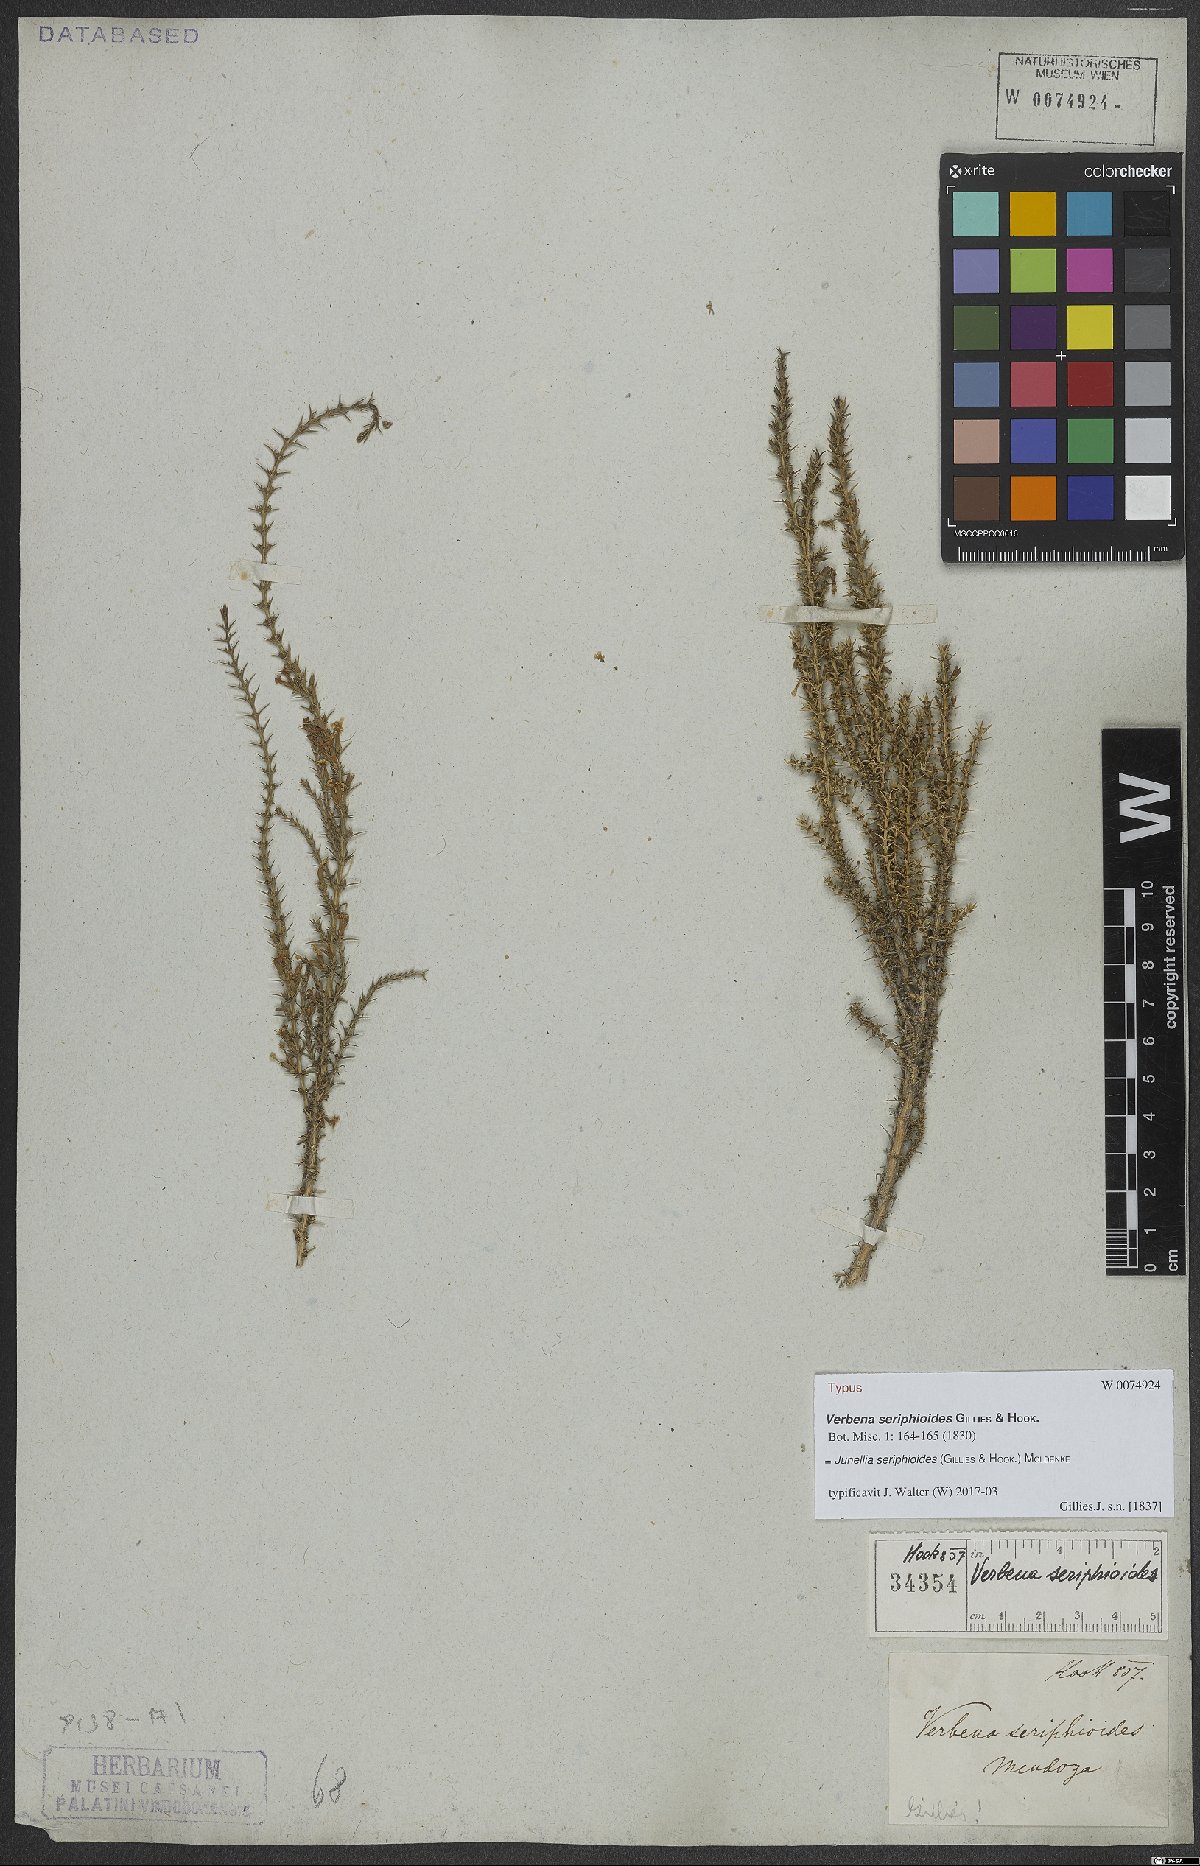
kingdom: Plantae
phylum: Tracheophyta
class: Magnoliopsida
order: Lamiales
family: Verbenaceae
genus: Junellia
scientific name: Junellia seriphioides
